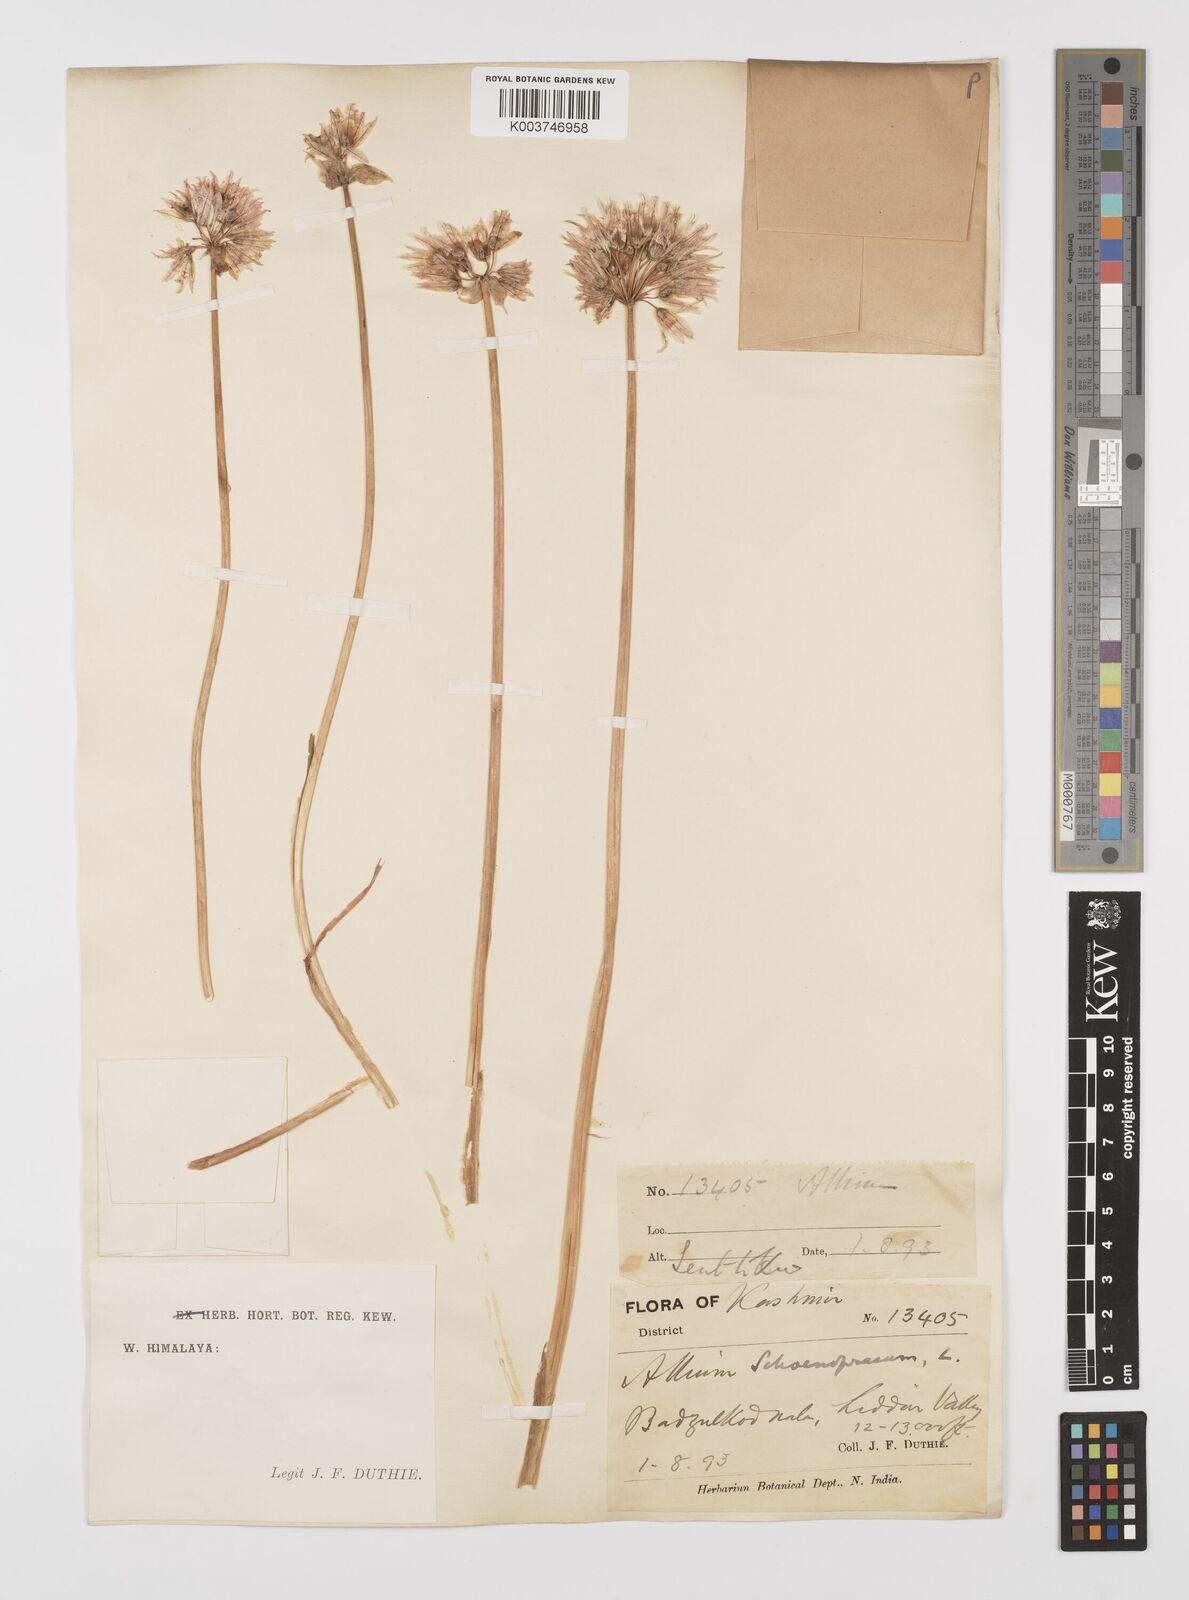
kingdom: Plantae
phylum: Tracheophyta
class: Liliopsida
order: Asparagales
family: Amaryllidaceae
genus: Allium
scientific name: Allium
